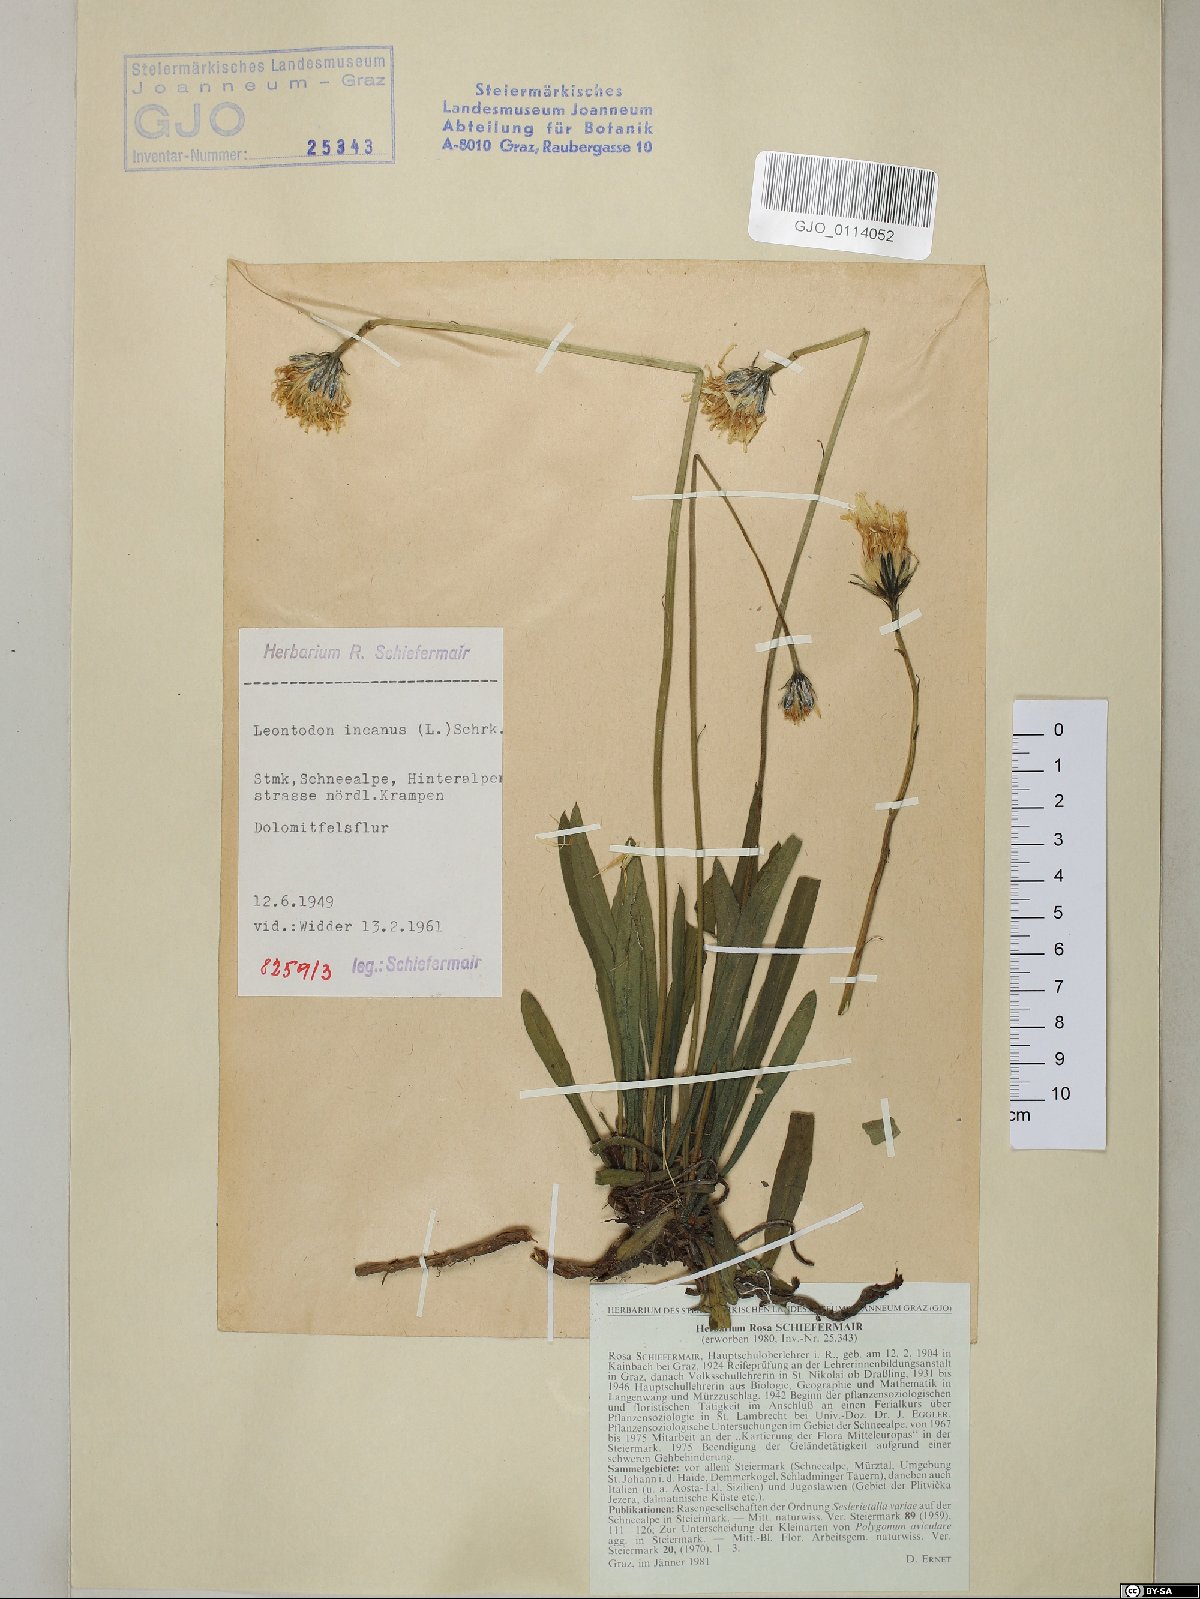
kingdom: Plantae
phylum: Tracheophyta
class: Magnoliopsida
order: Asterales
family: Asteraceae
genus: Leontodon
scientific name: Leontodon incanus
